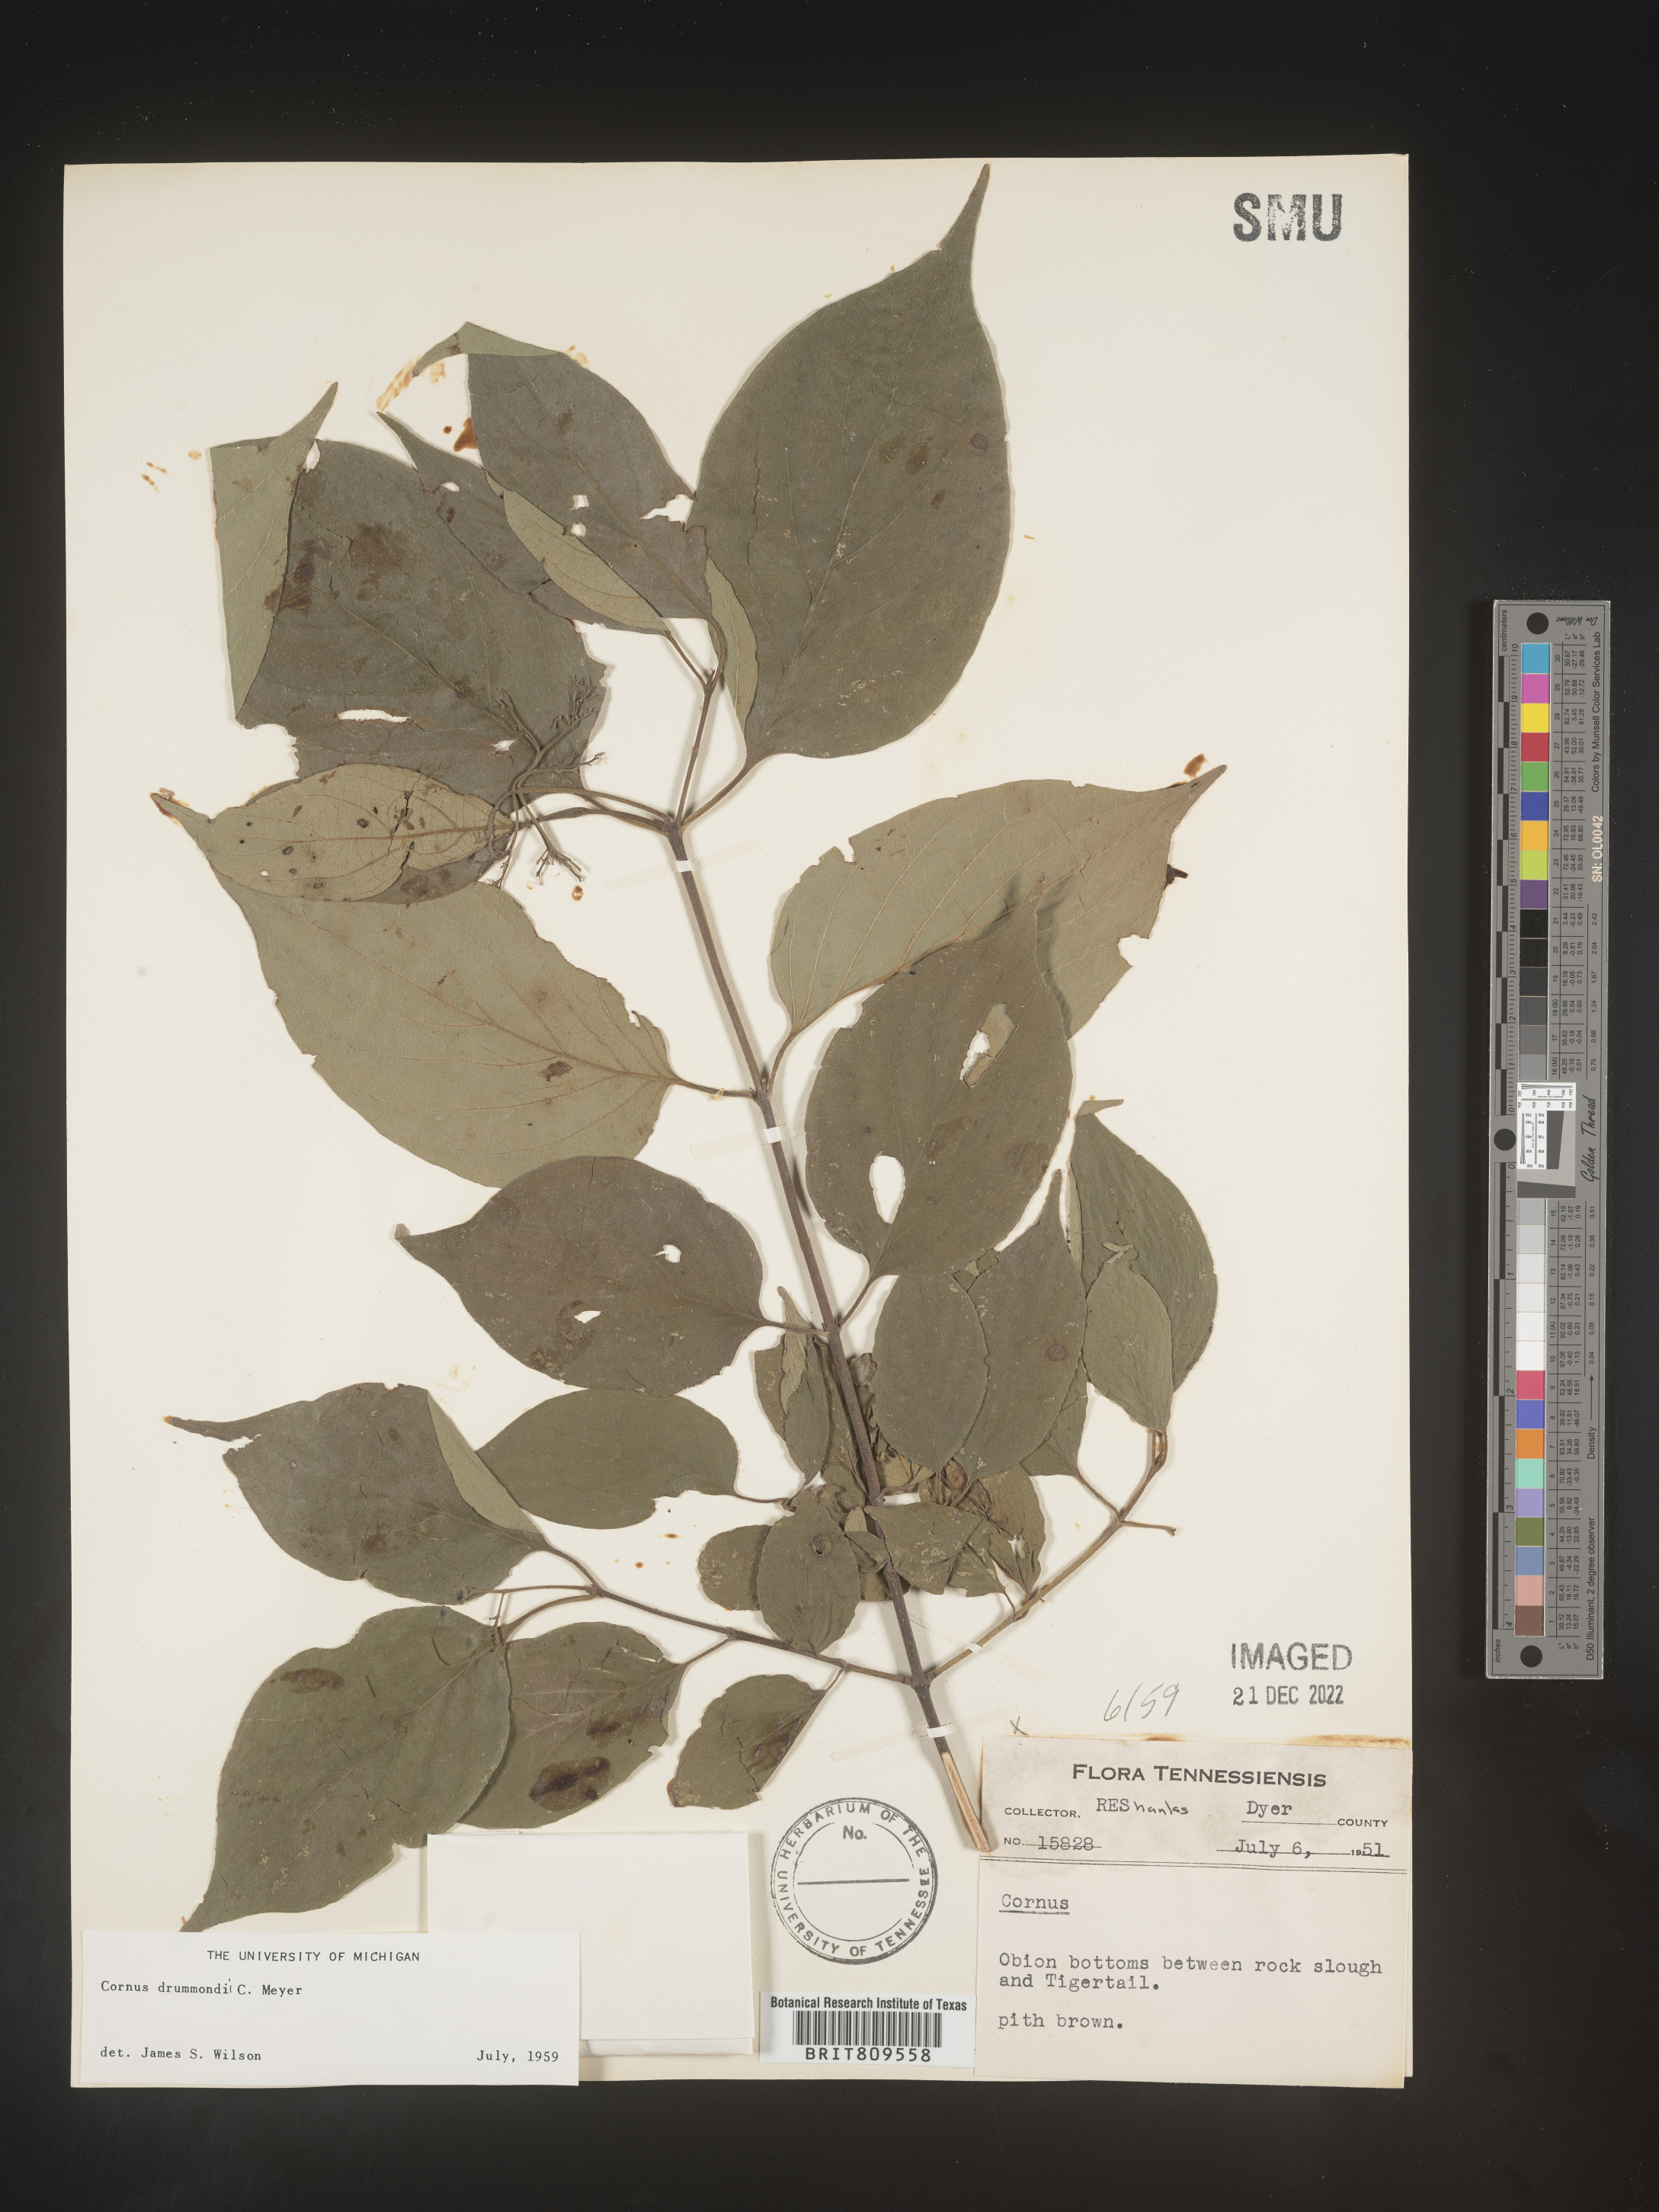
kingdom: Plantae
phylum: Tracheophyta
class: Magnoliopsida
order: Cornales
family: Cornaceae
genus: Cornus
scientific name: Cornus drummondii
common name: Rough-leaf dogwood
